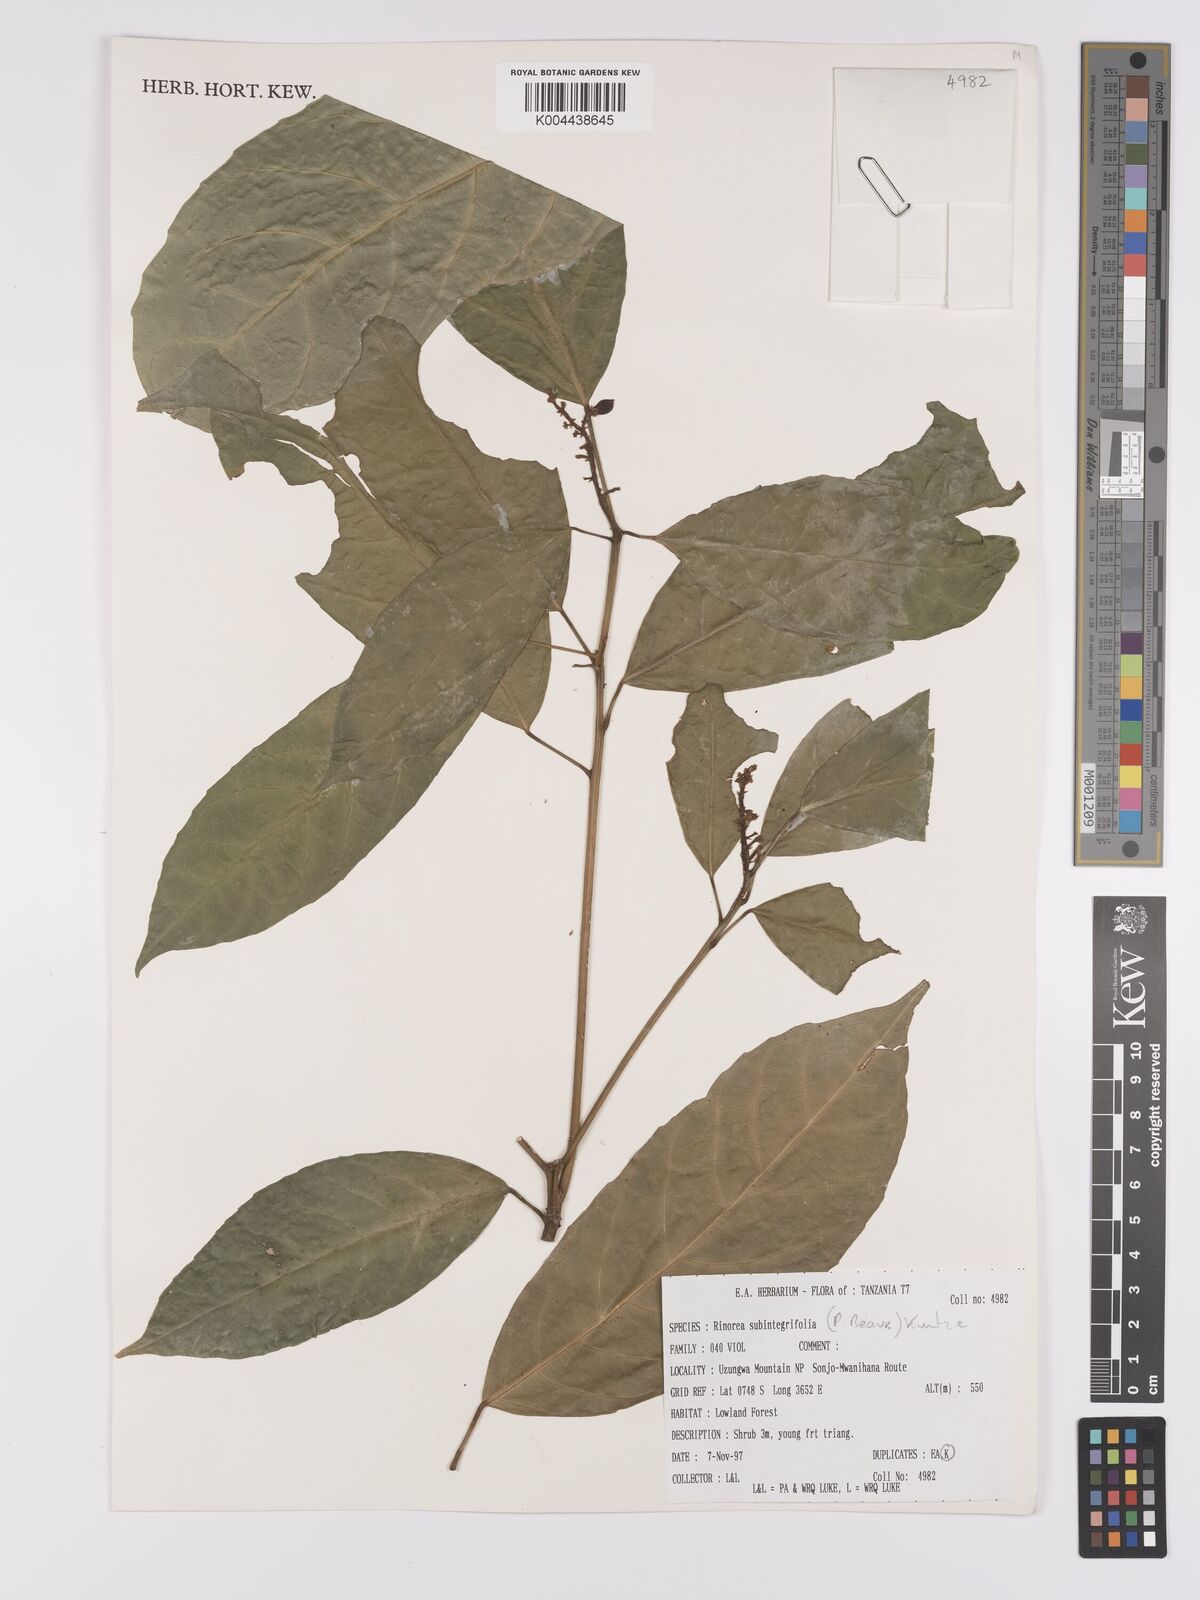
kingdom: Plantae
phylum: Tracheophyta
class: Magnoliopsida
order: Apiales
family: Pittosporaceae
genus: Marianthus
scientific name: Marianthus coeruleopunctatus
